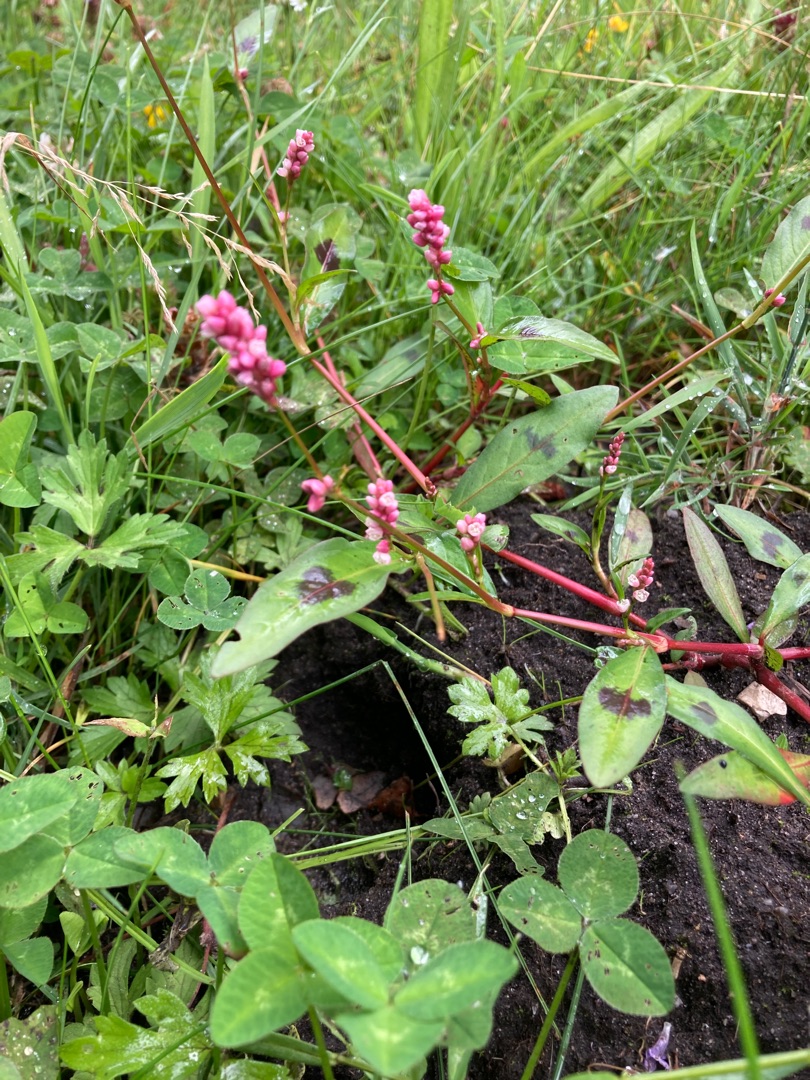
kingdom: Plantae
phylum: Tracheophyta
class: Magnoliopsida
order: Caryophyllales
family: Polygonaceae
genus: Persicaria
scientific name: Persicaria maculosa
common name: Fersken-pileurt
